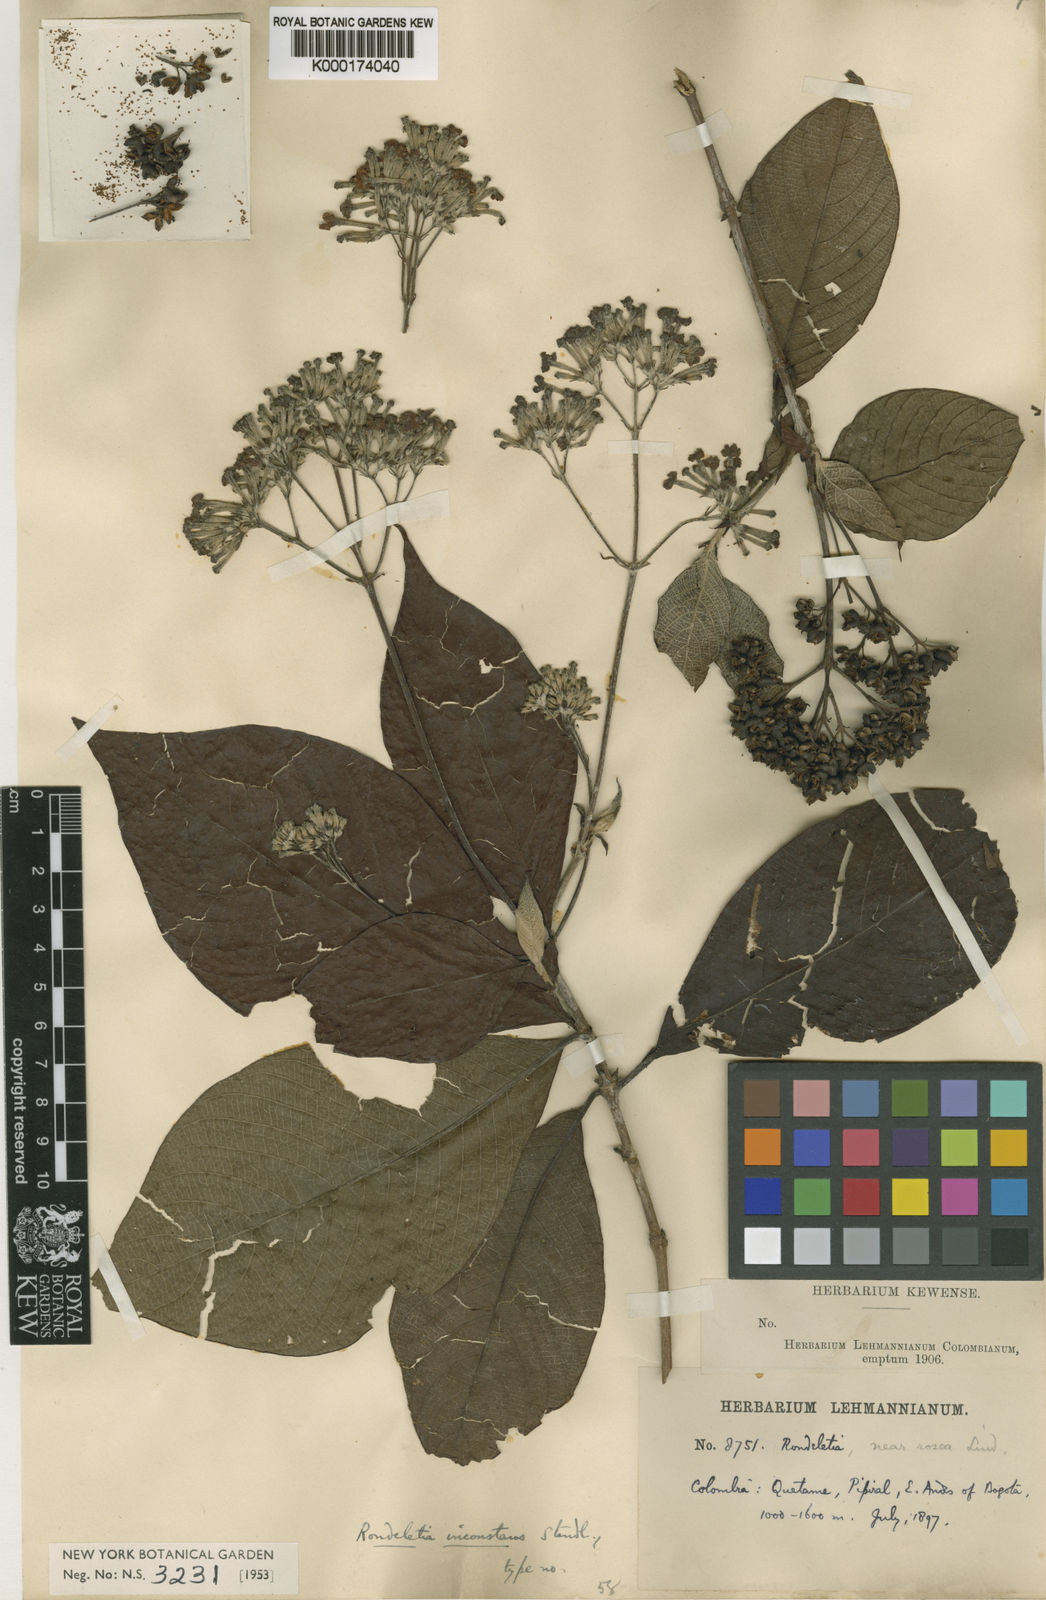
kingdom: Plantae
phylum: Tracheophyta
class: Magnoliopsida
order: Gentianales
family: Rubiaceae
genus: Arachnothryx
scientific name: Arachnothryx reflexa
